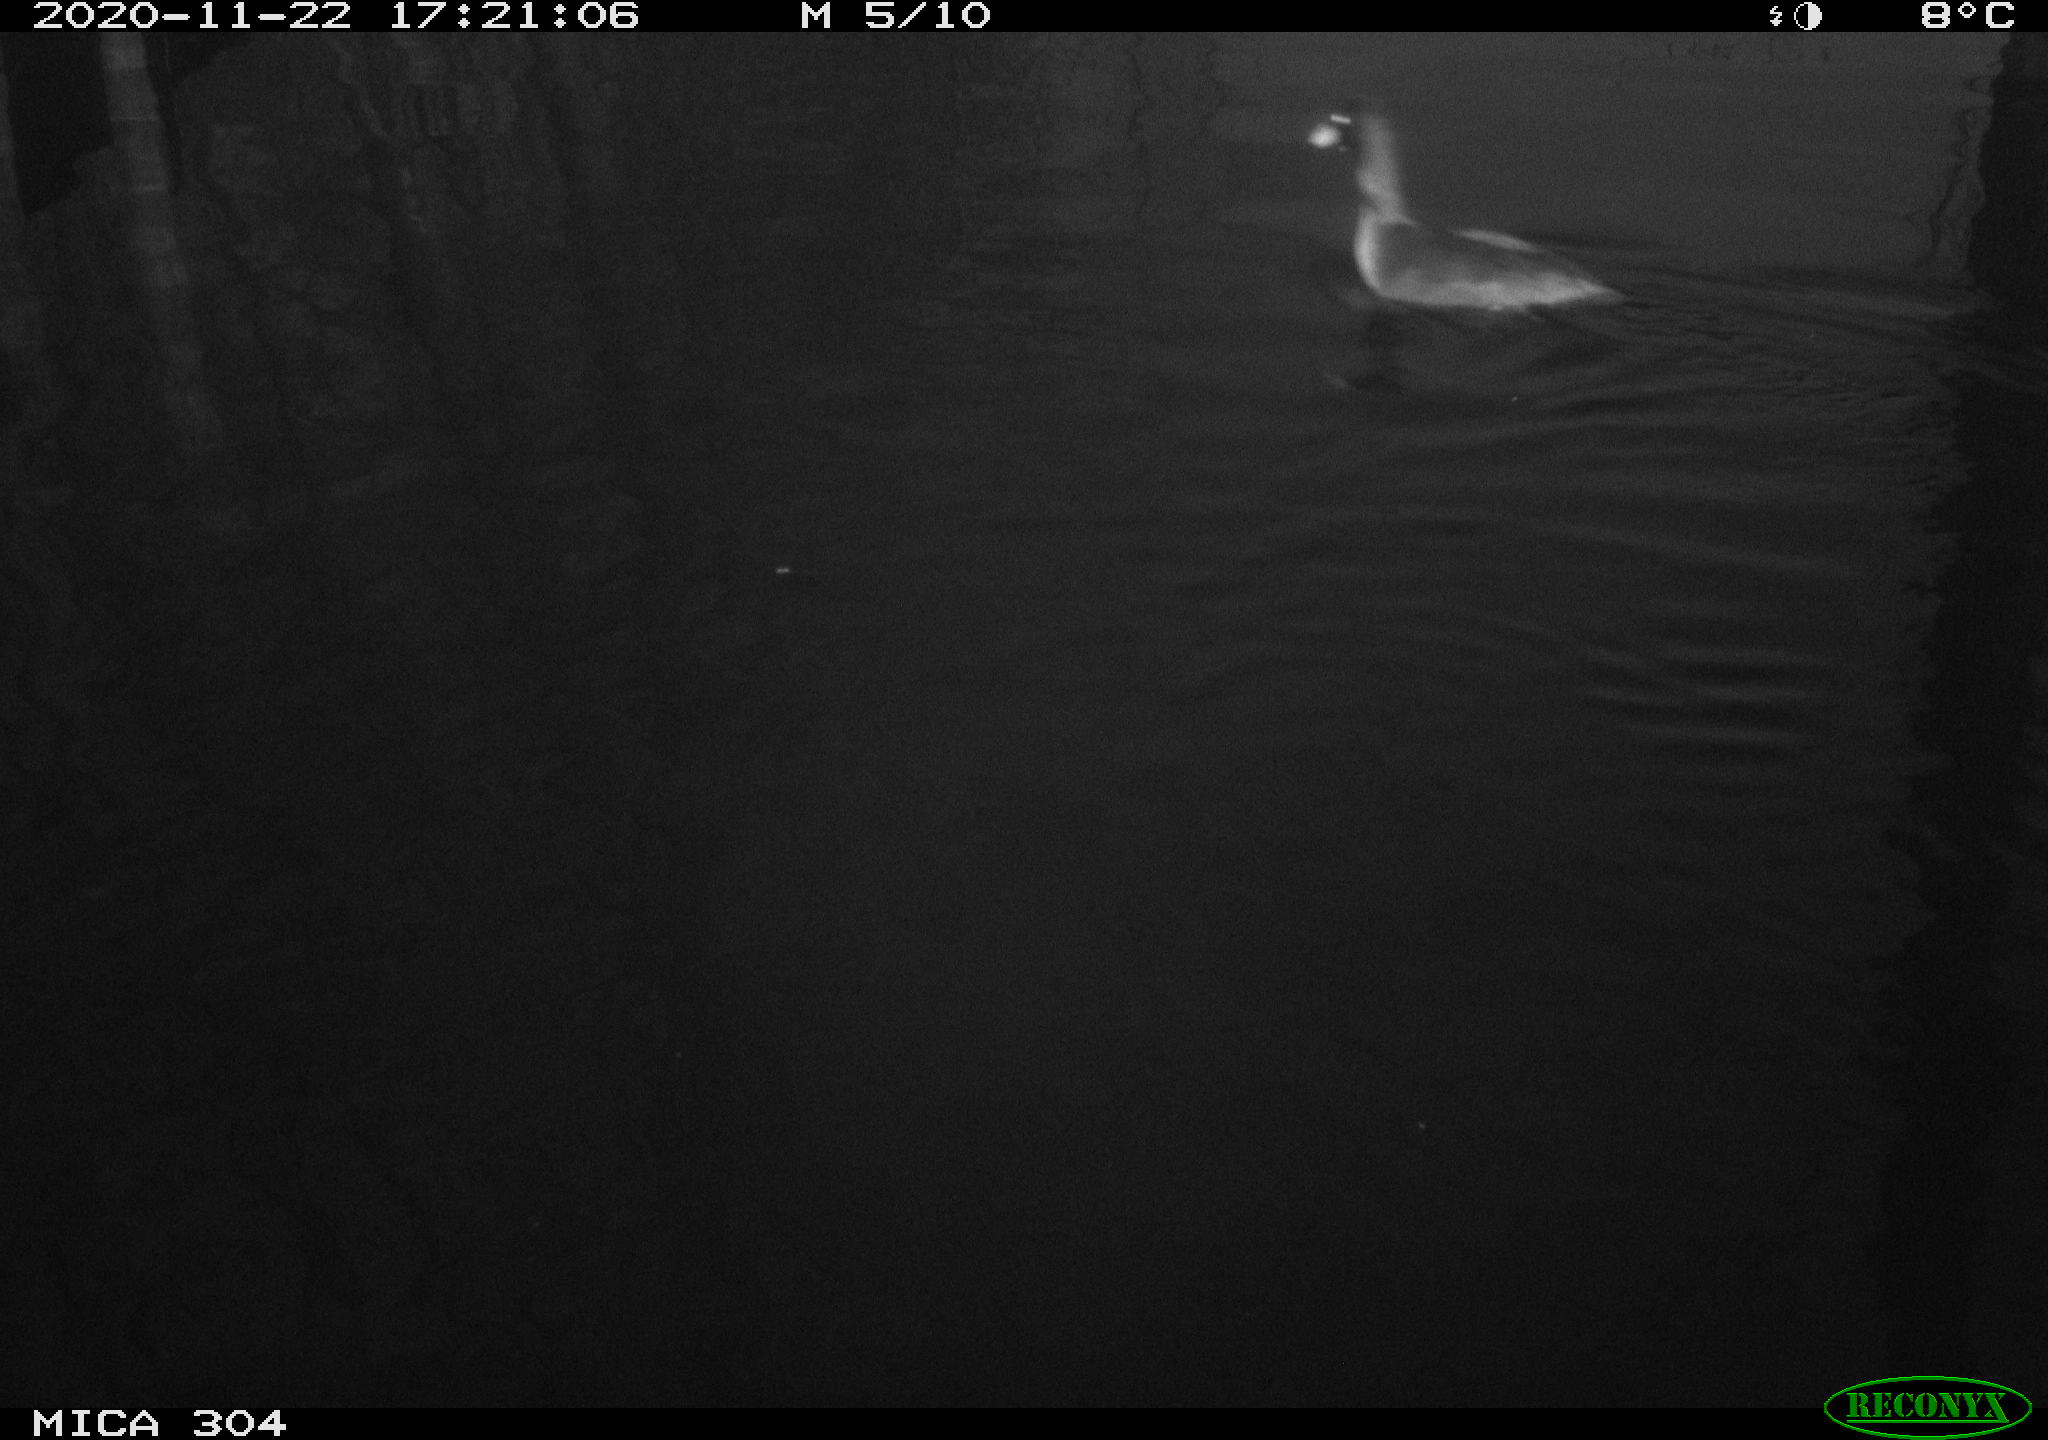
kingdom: Animalia
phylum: Chordata
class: Aves
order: Gruiformes
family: Rallidae
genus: Fulica
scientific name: Fulica atra
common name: Eurasian coot
